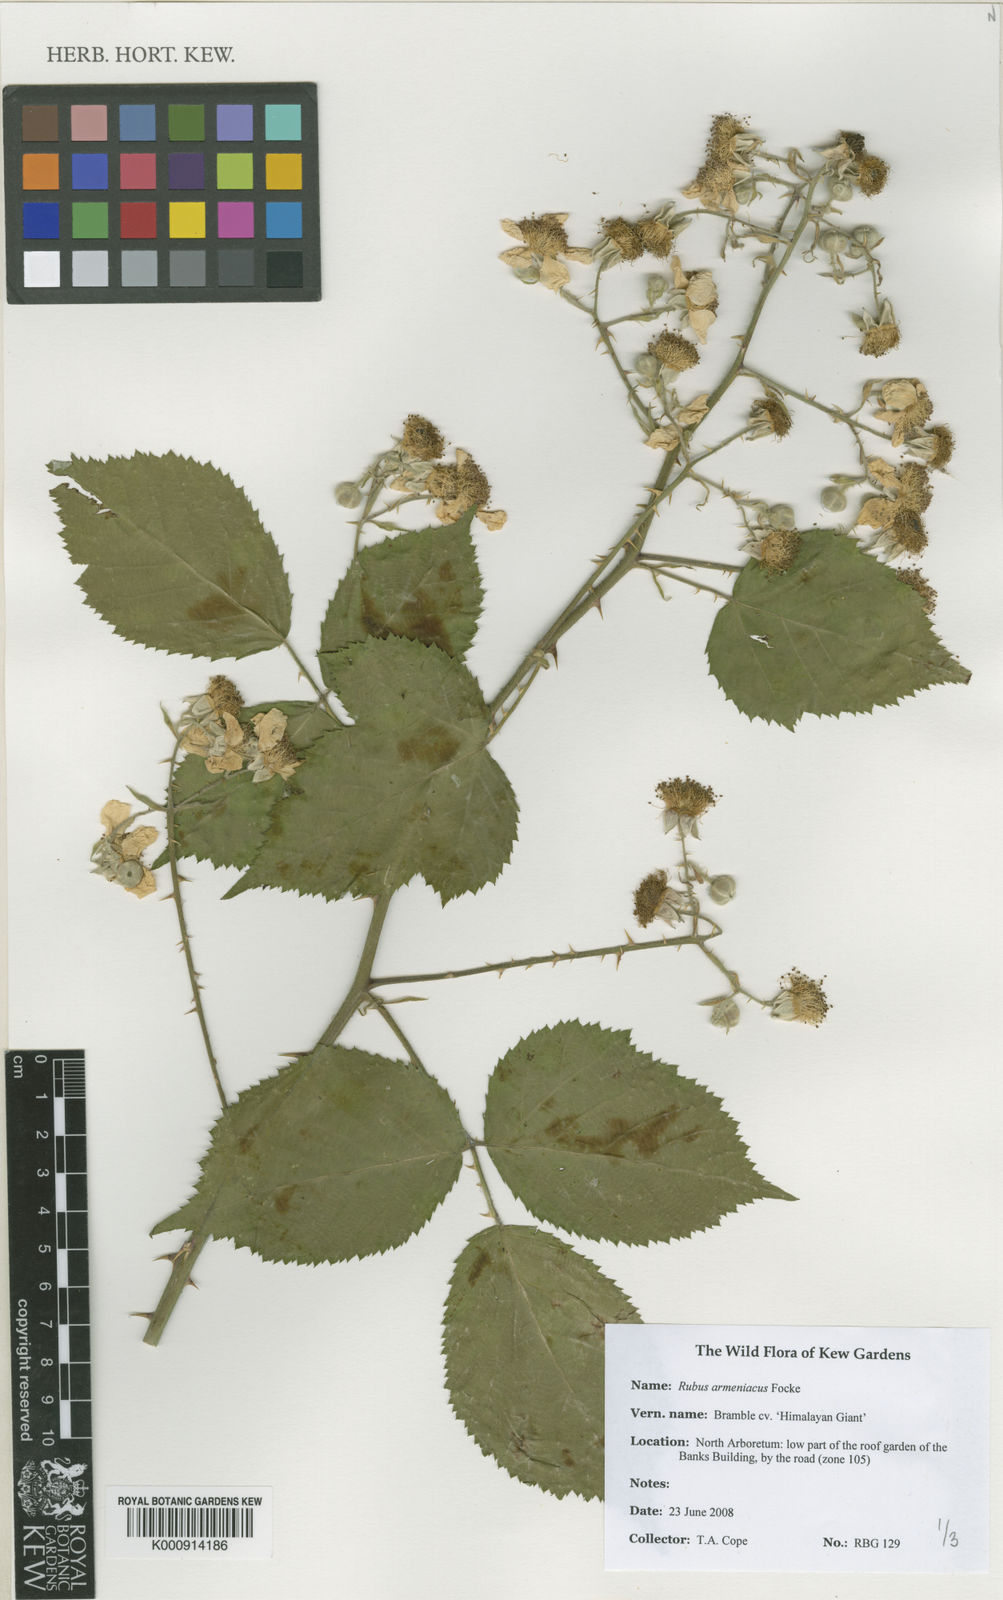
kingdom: Plantae
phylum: Tracheophyta
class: Magnoliopsida
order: Rosales
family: Rosaceae
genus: Rubus
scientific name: Rubus armeniacus
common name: Himalayan blackberry
